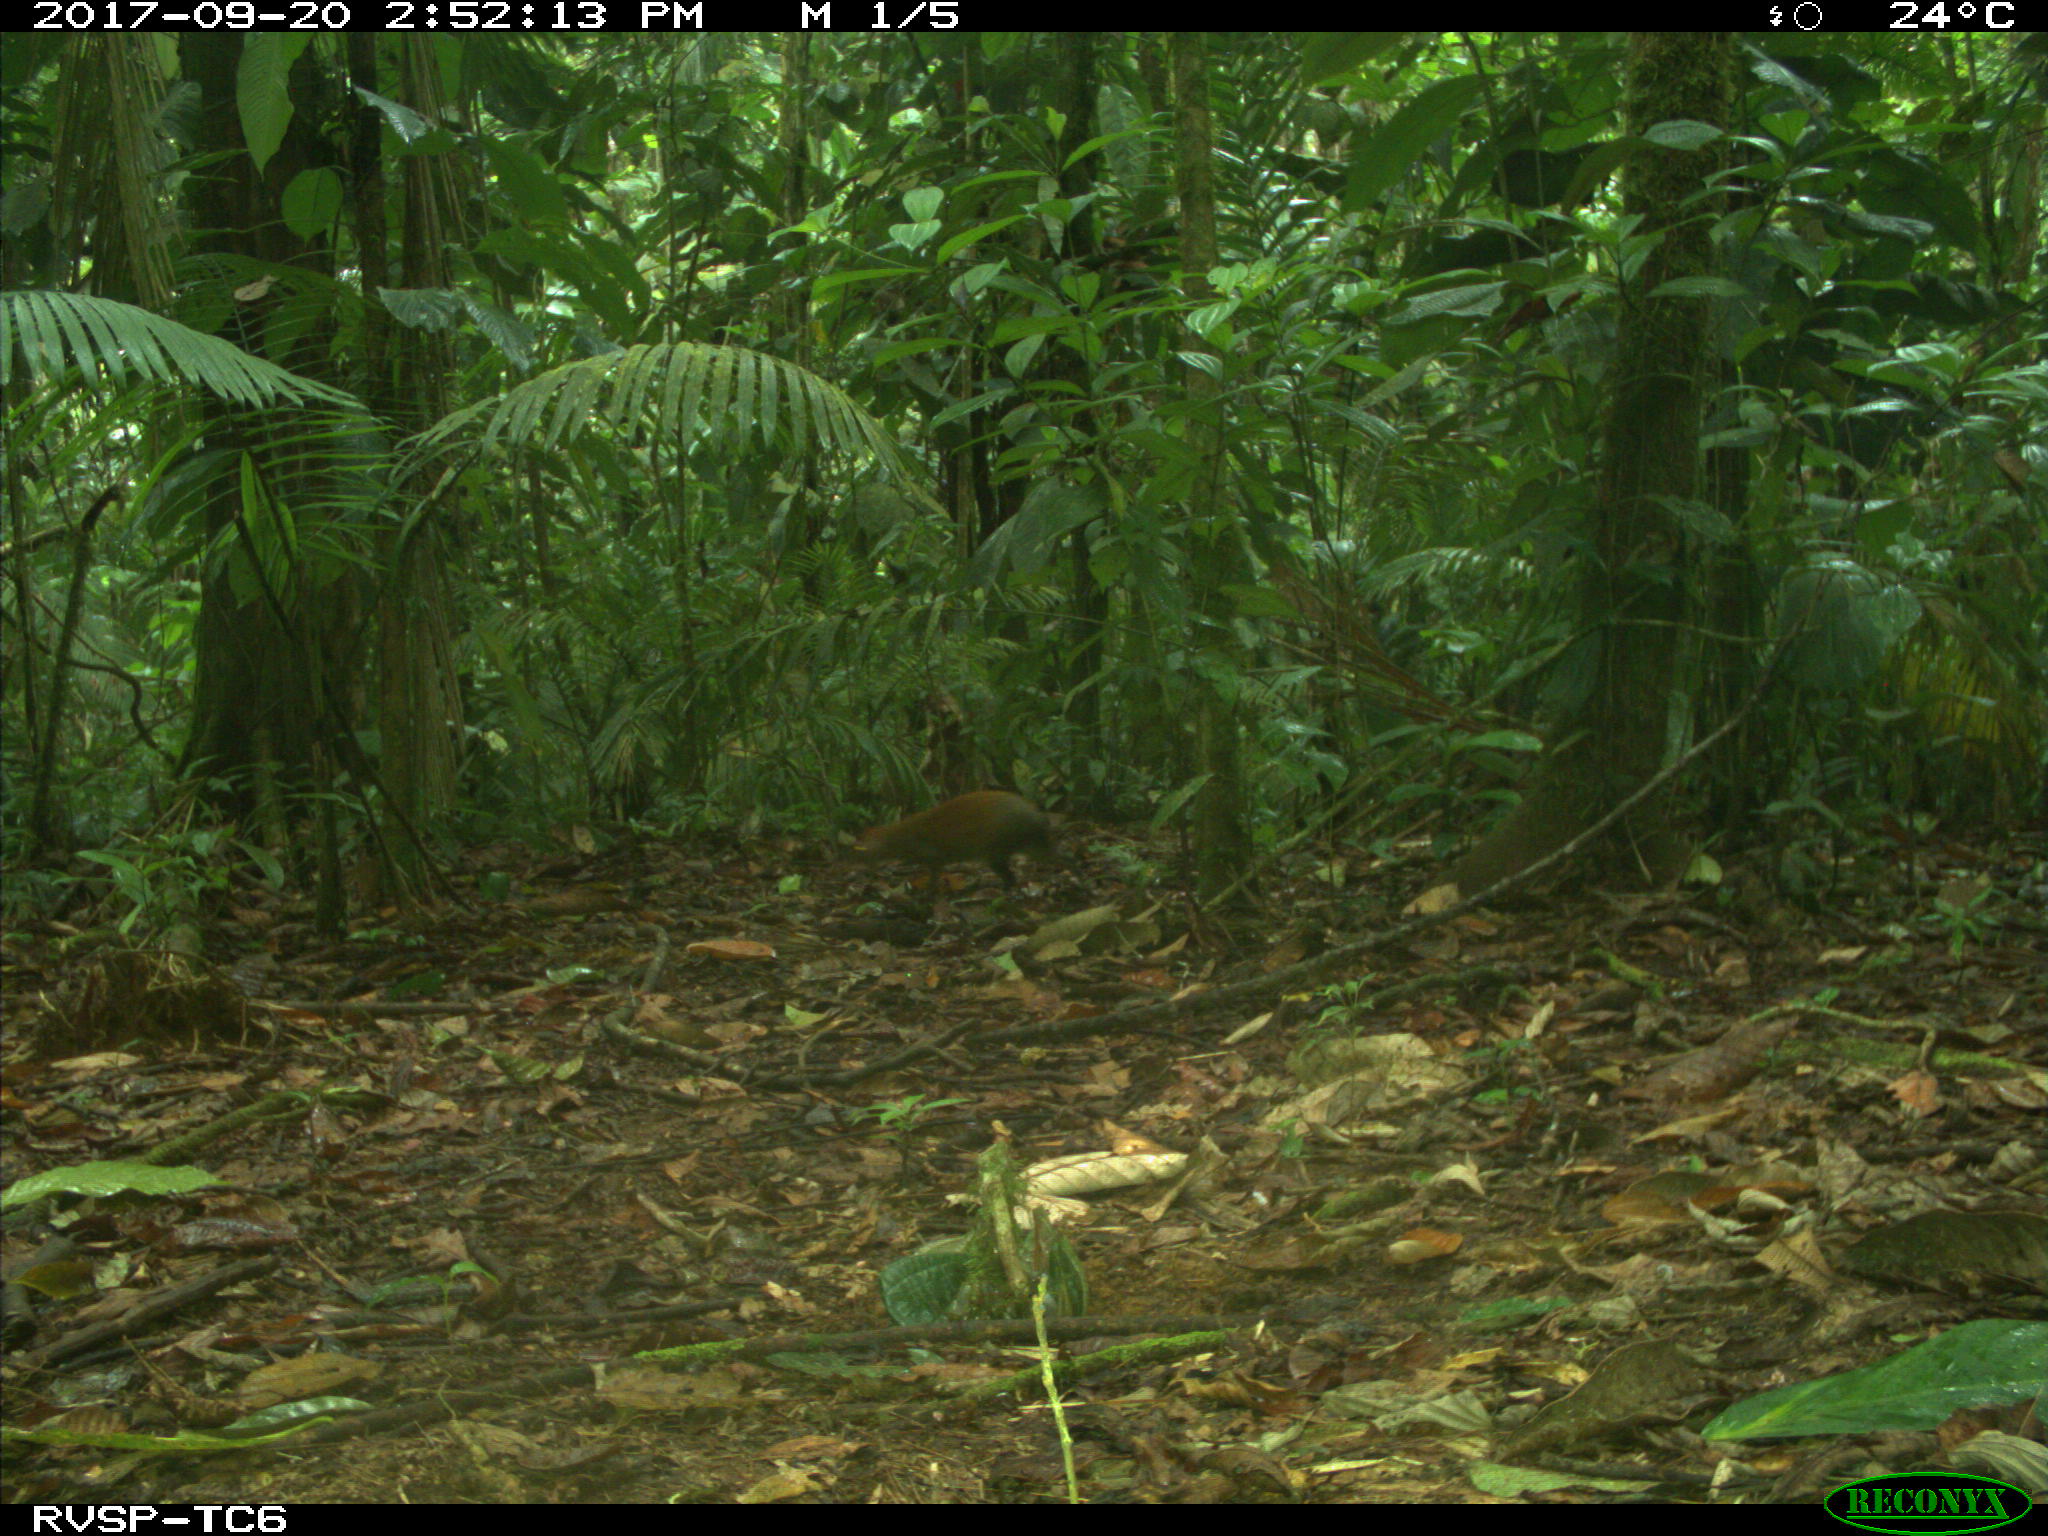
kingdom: Animalia
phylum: Chordata
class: Mammalia
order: Rodentia
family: Dasyproctidae
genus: Dasyprocta
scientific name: Dasyprocta punctata
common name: Central american agouti
